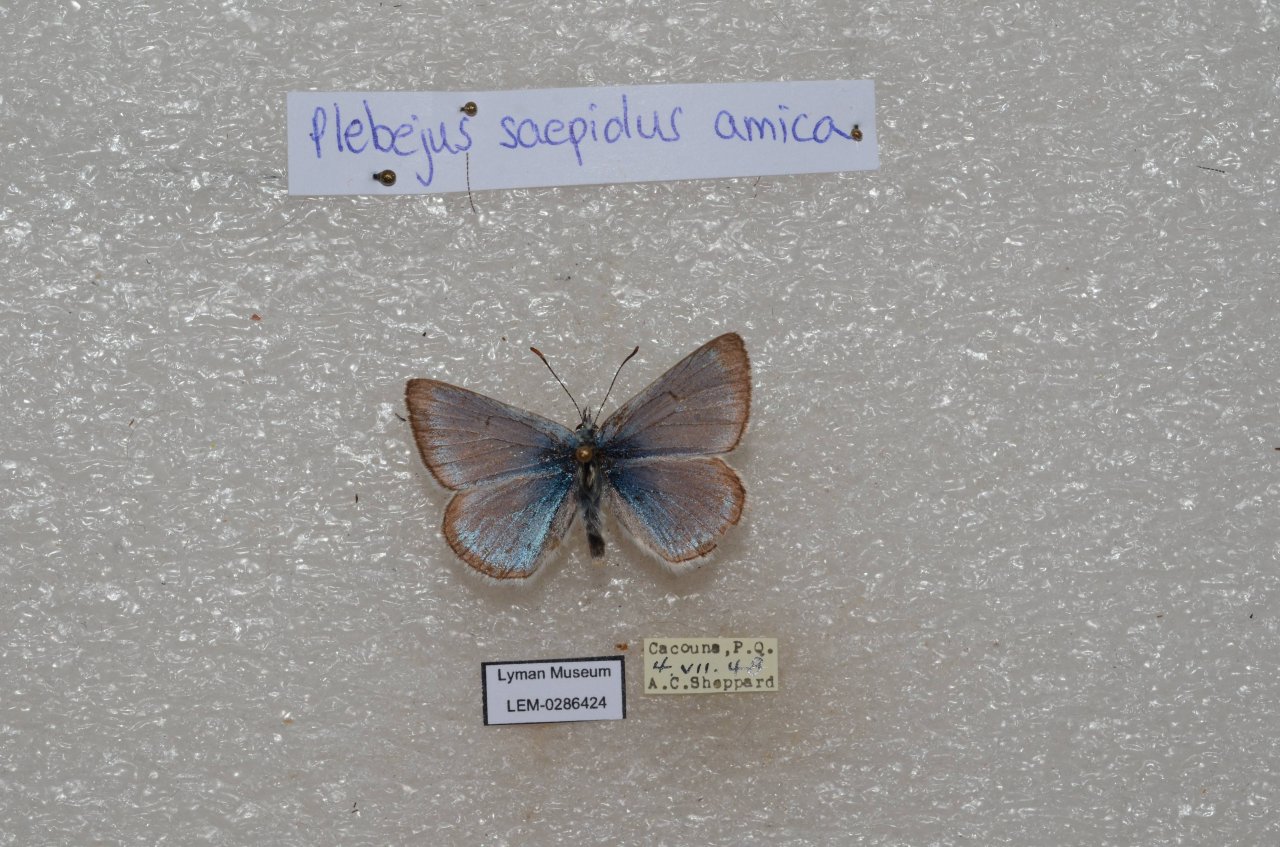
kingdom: Animalia
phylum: Arthropoda
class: Insecta
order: Lepidoptera
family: Lycaenidae
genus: Plebejus
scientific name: Plebejus saepiolus
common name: Greenish Blue
